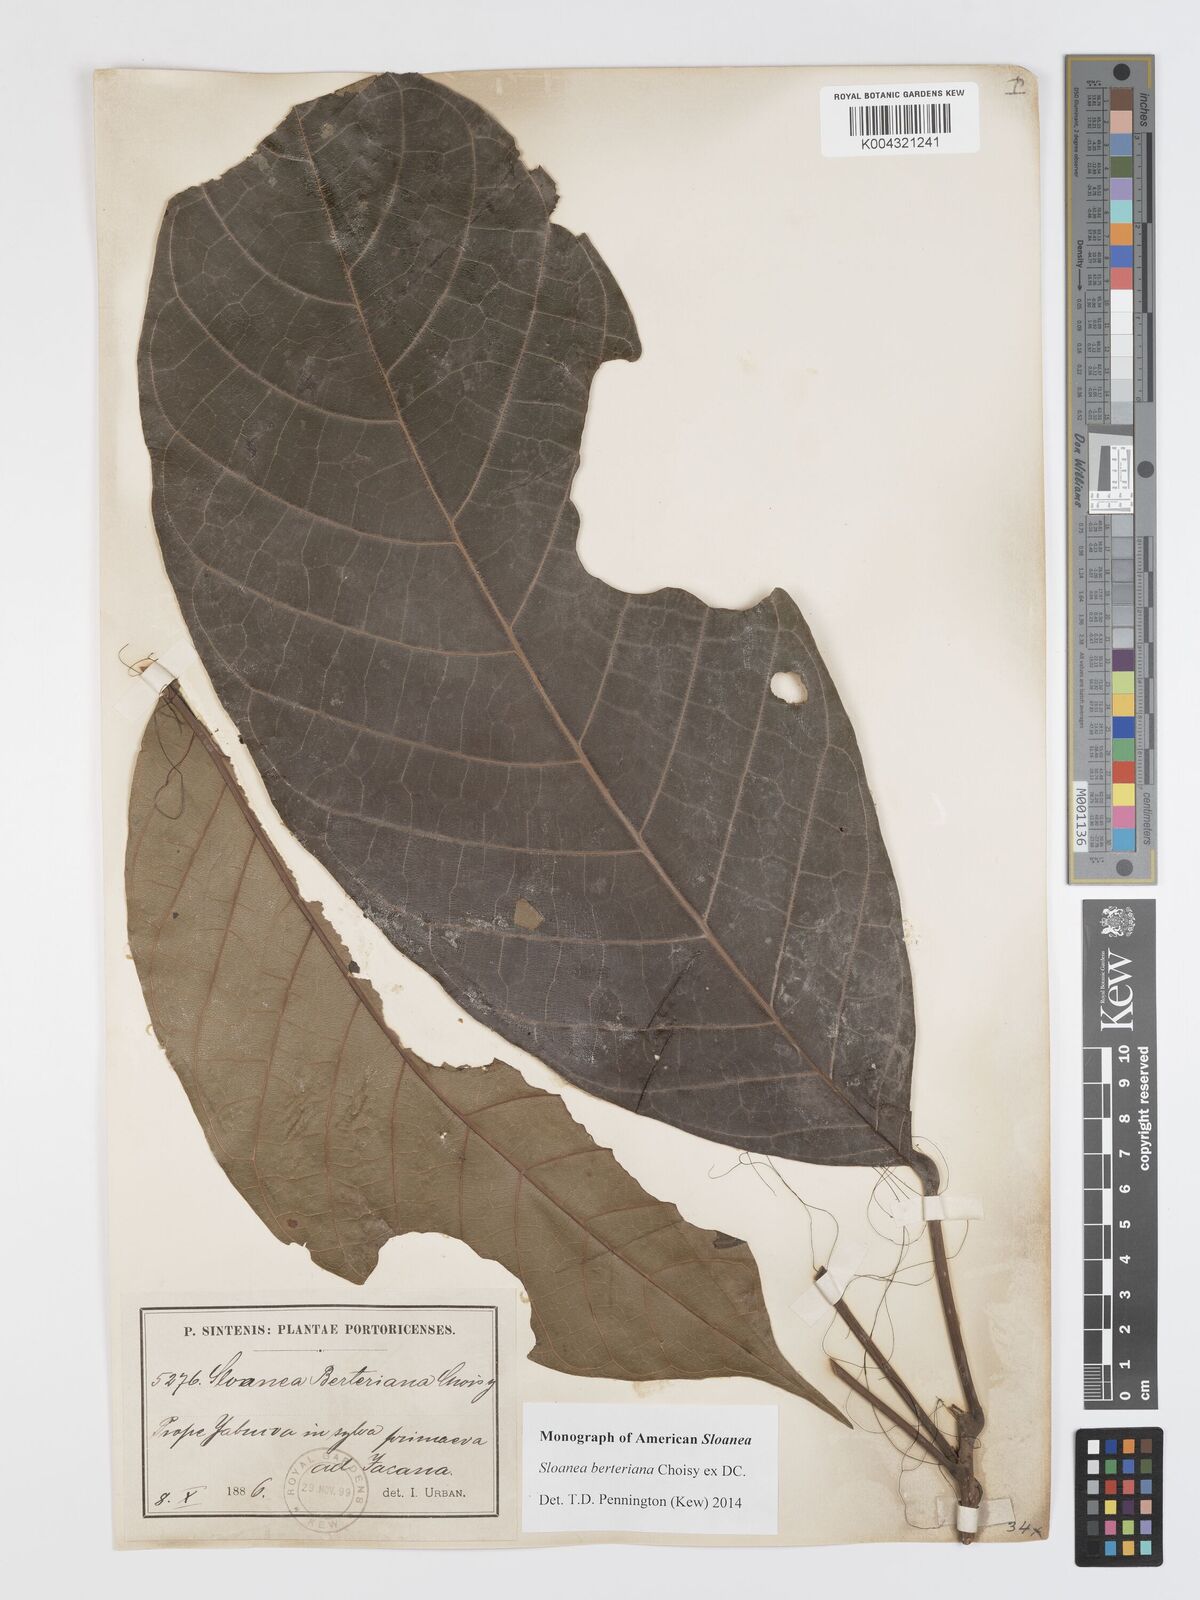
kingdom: Plantae
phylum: Tracheophyta
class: Magnoliopsida
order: Oxalidales
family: Elaeocarpaceae
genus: Sloanea
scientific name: Sloanea berteroana
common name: Bullwood
